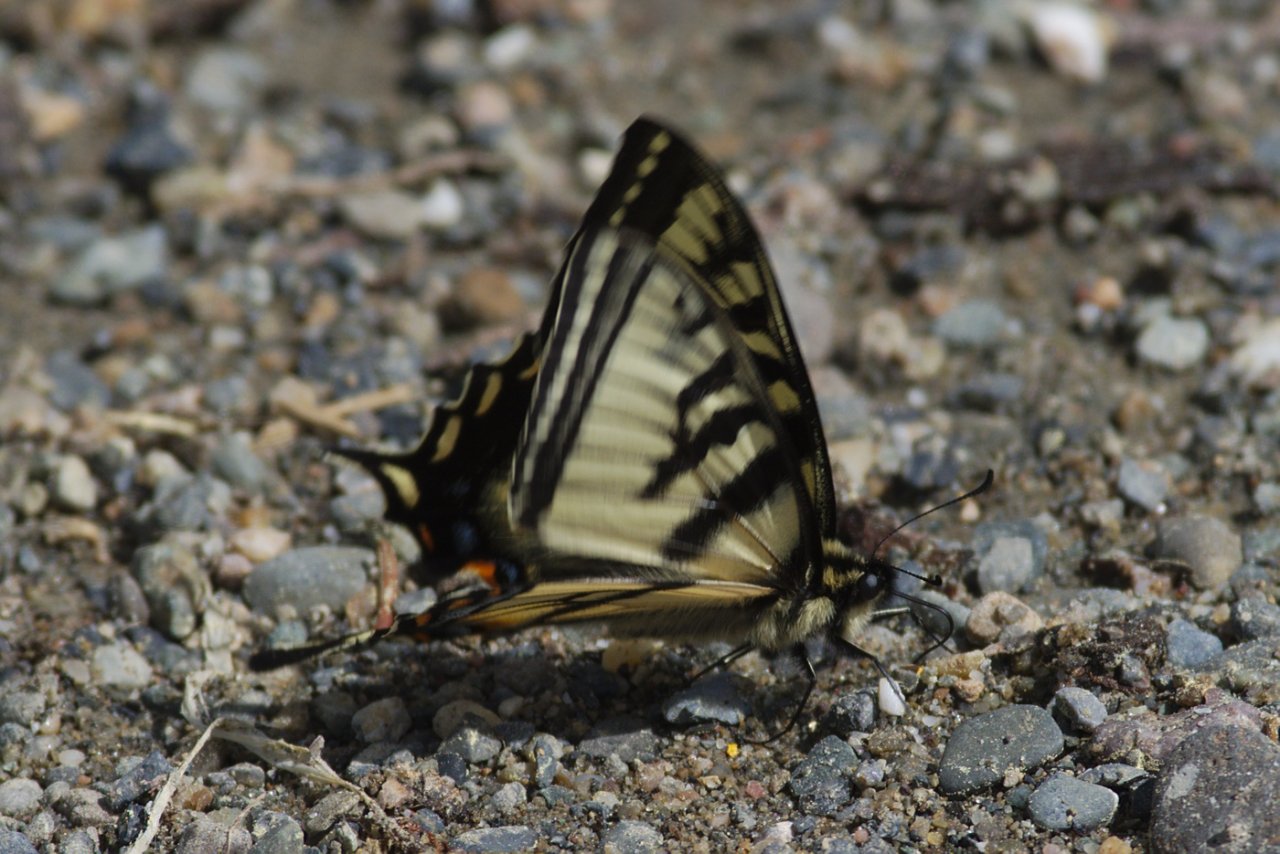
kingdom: Animalia
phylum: Arthropoda
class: Insecta
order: Lepidoptera
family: Papilionidae
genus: Pterourus
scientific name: Pterourus canadensis
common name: Canadian Tiger Swallowtail
